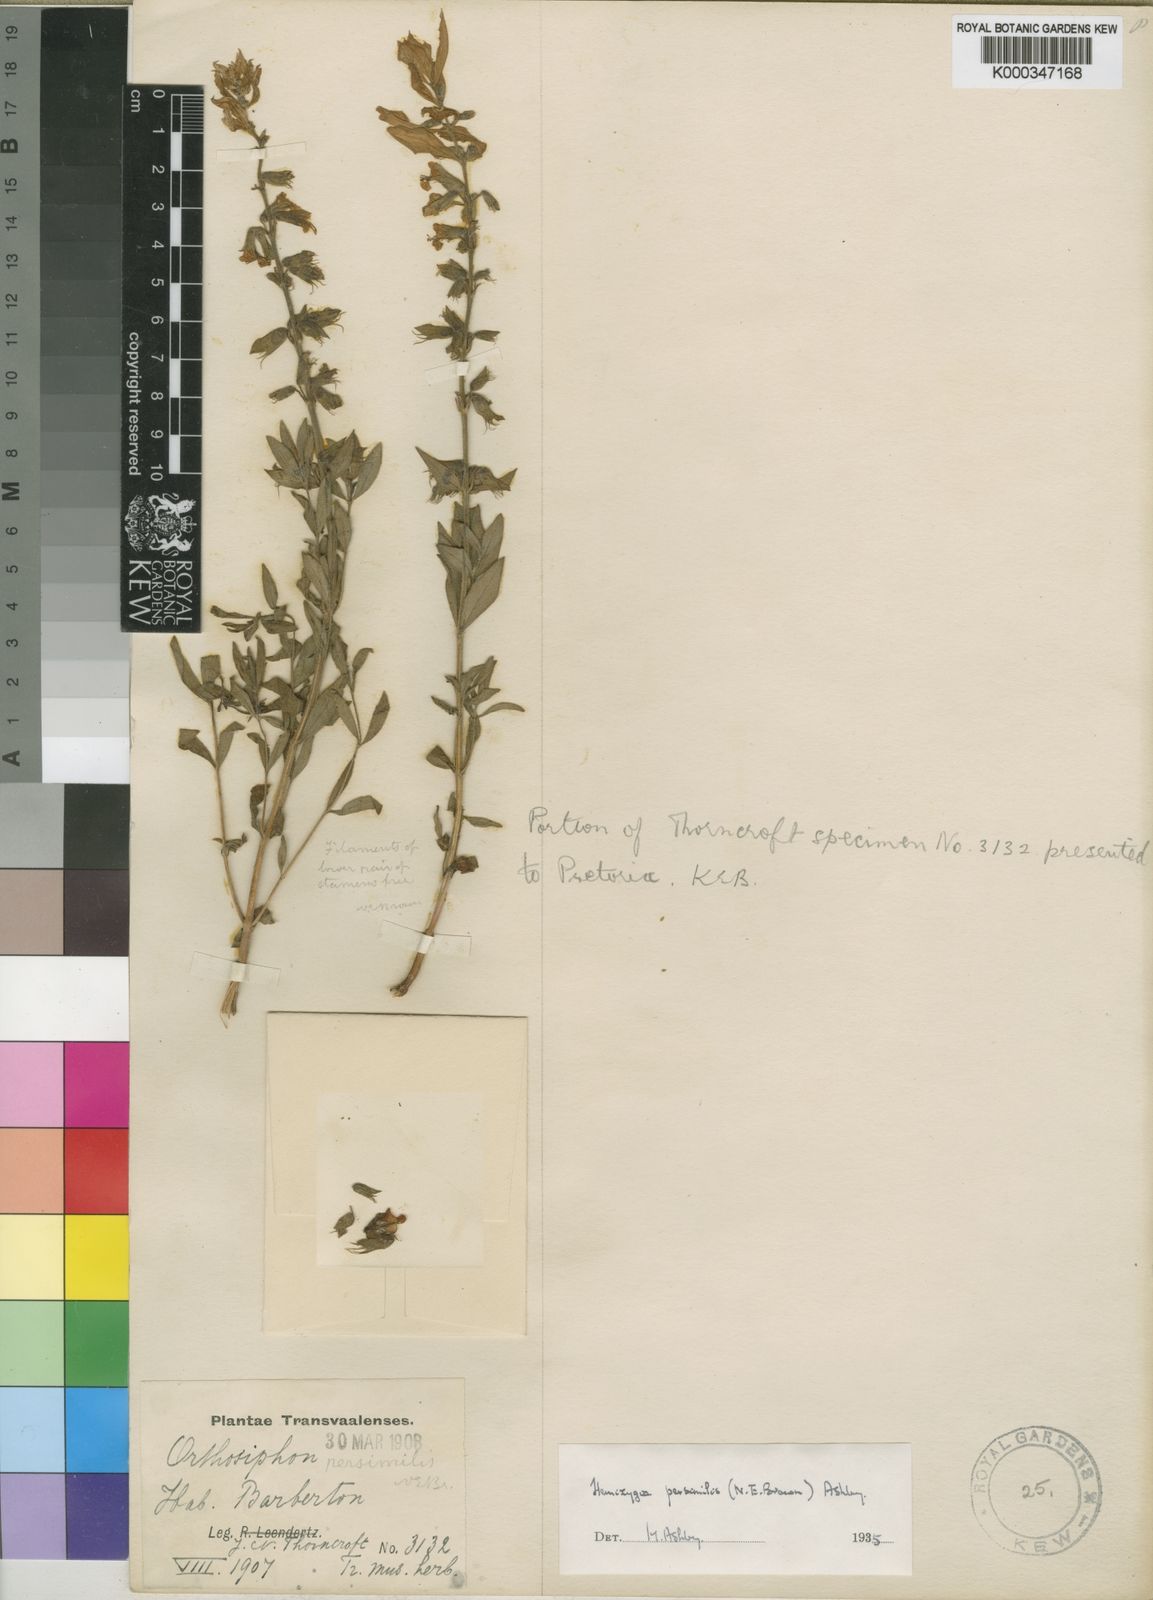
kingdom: Plantae
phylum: Tracheophyta
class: Magnoliopsida
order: Lamiales
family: Lamiaceae
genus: Syncolostemon
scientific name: Syncolostemon persimilis
